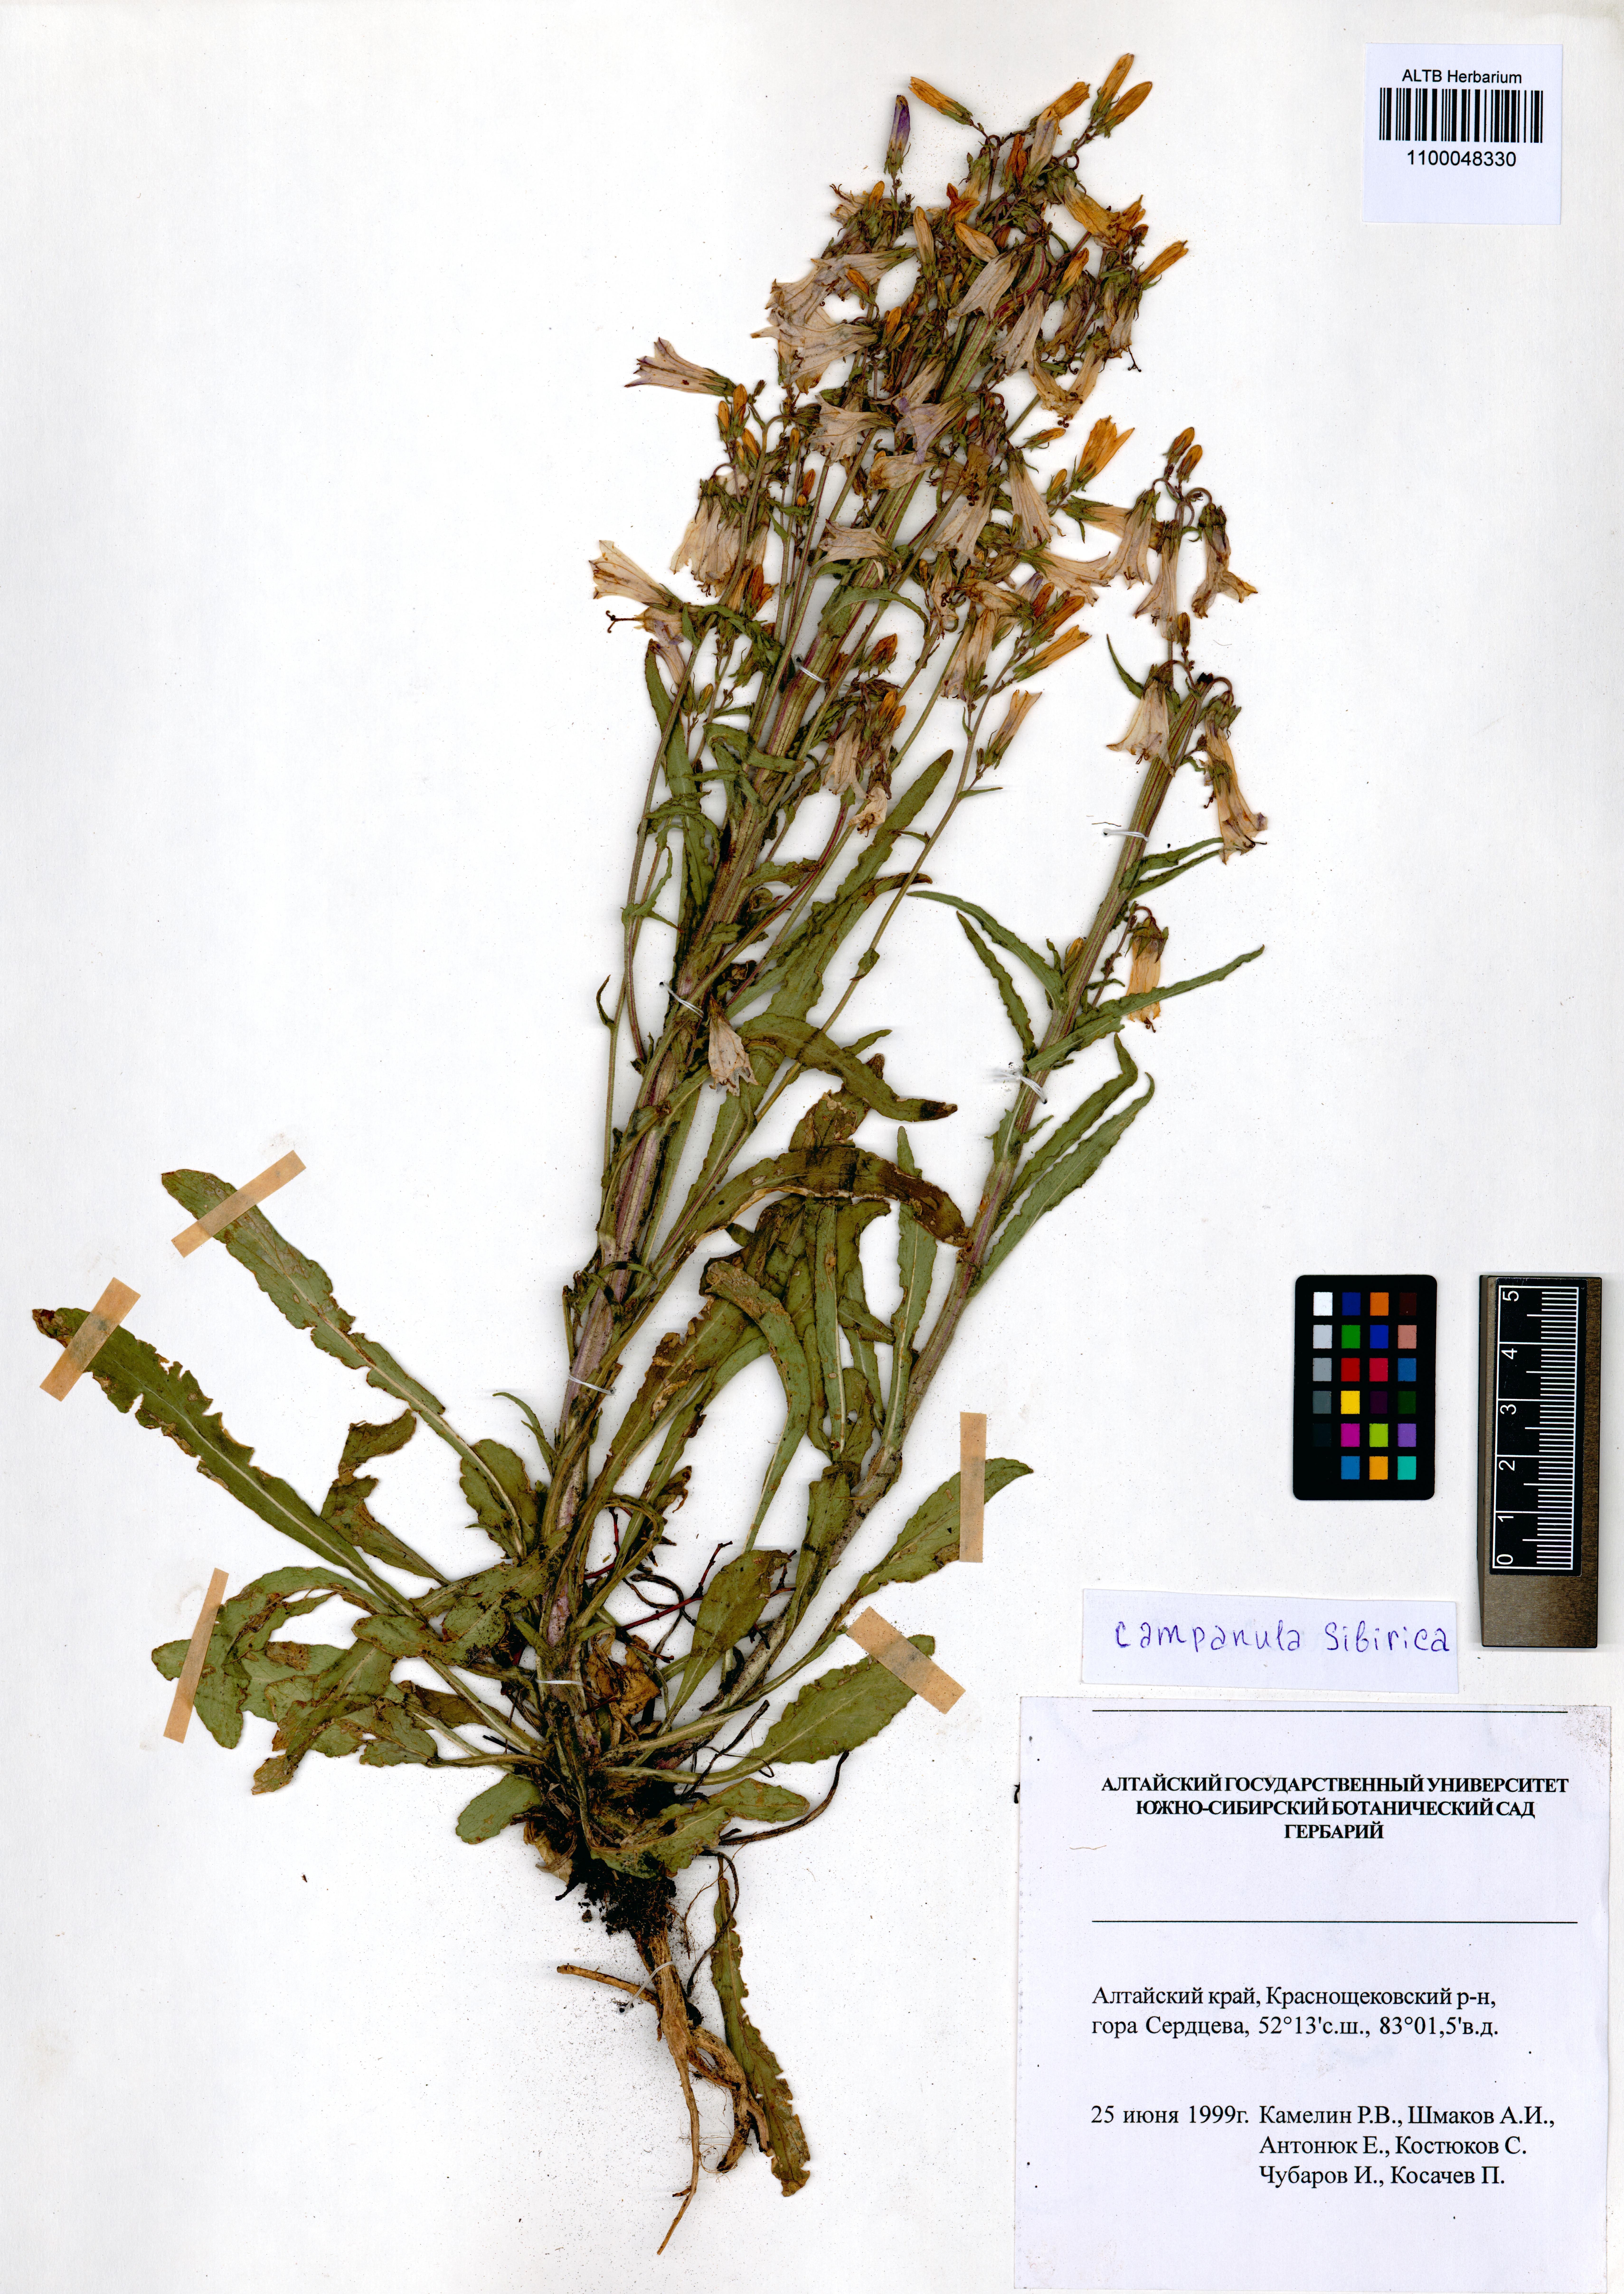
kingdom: Plantae
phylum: Tracheophyta
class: Magnoliopsida
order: Asterales
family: Campanulaceae
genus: Campanula
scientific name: Campanula sibirica
